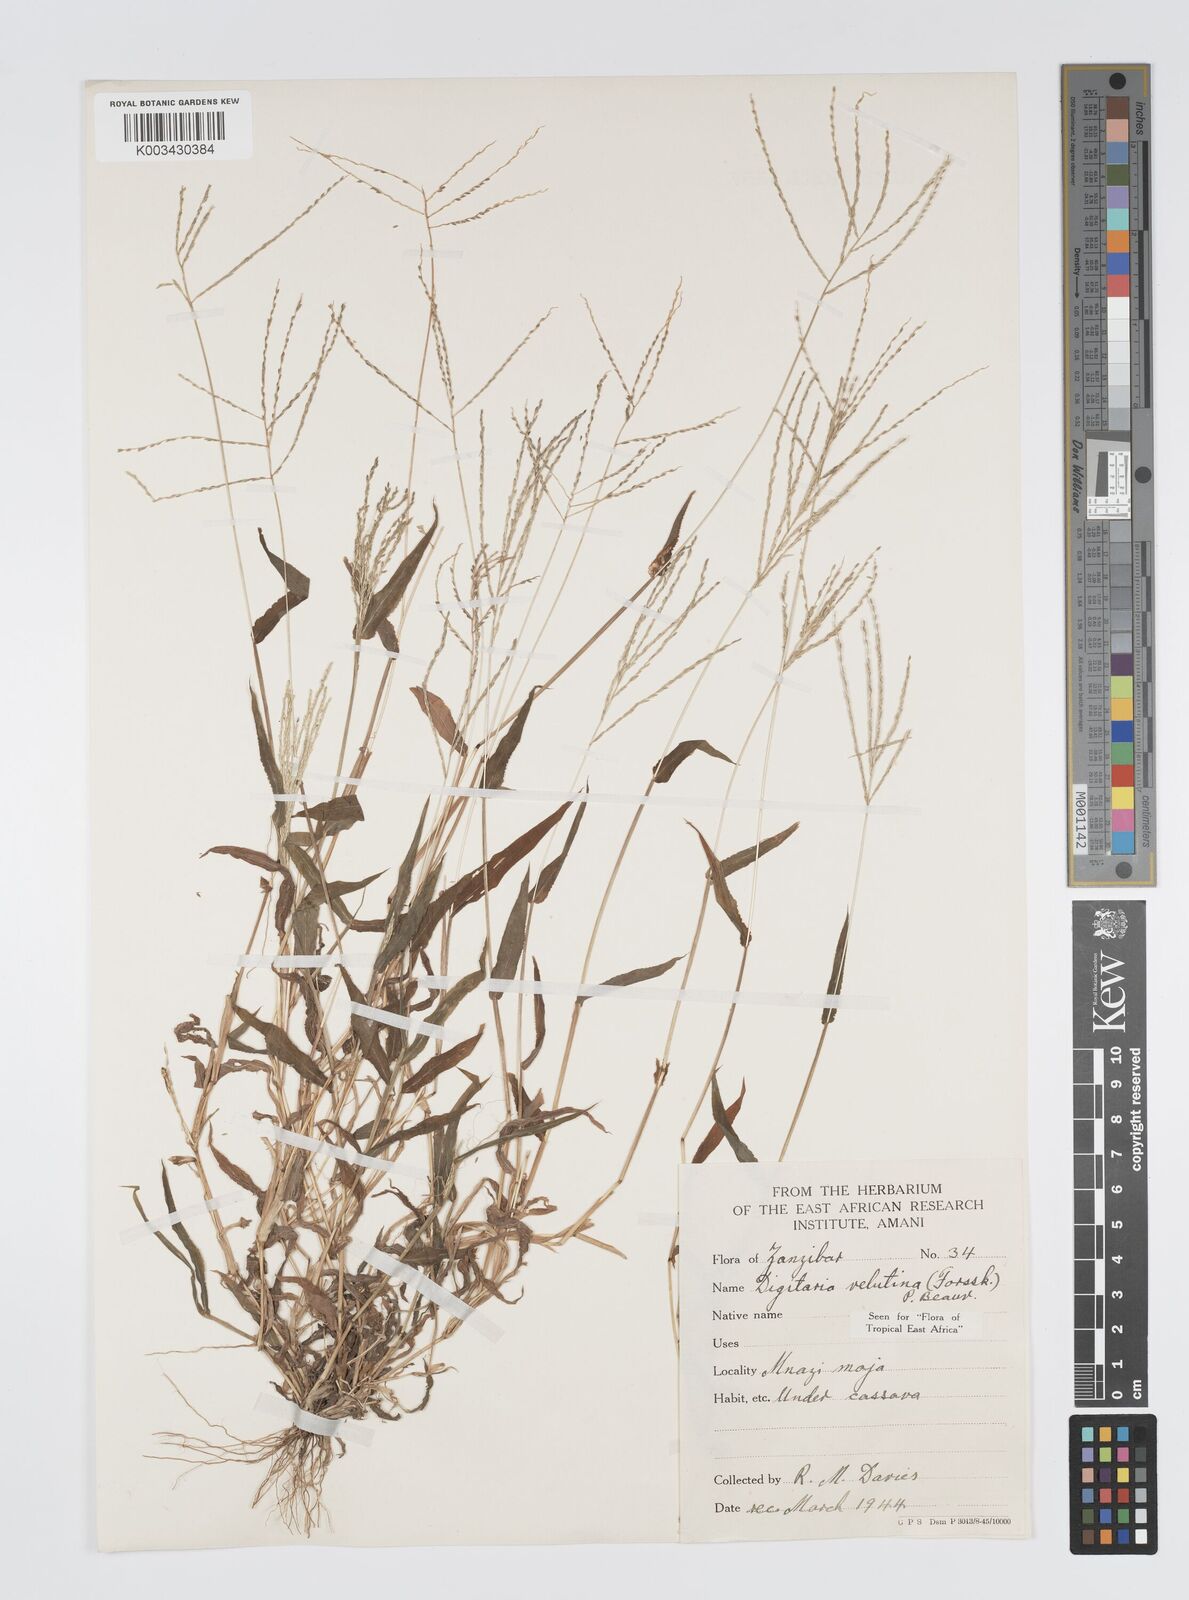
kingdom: Plantae
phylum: Tracheophyta
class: Liliopsida
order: Poales
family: Poaceae
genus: Digitaria
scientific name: Digitaria velutina
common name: Long-plume finger grass
